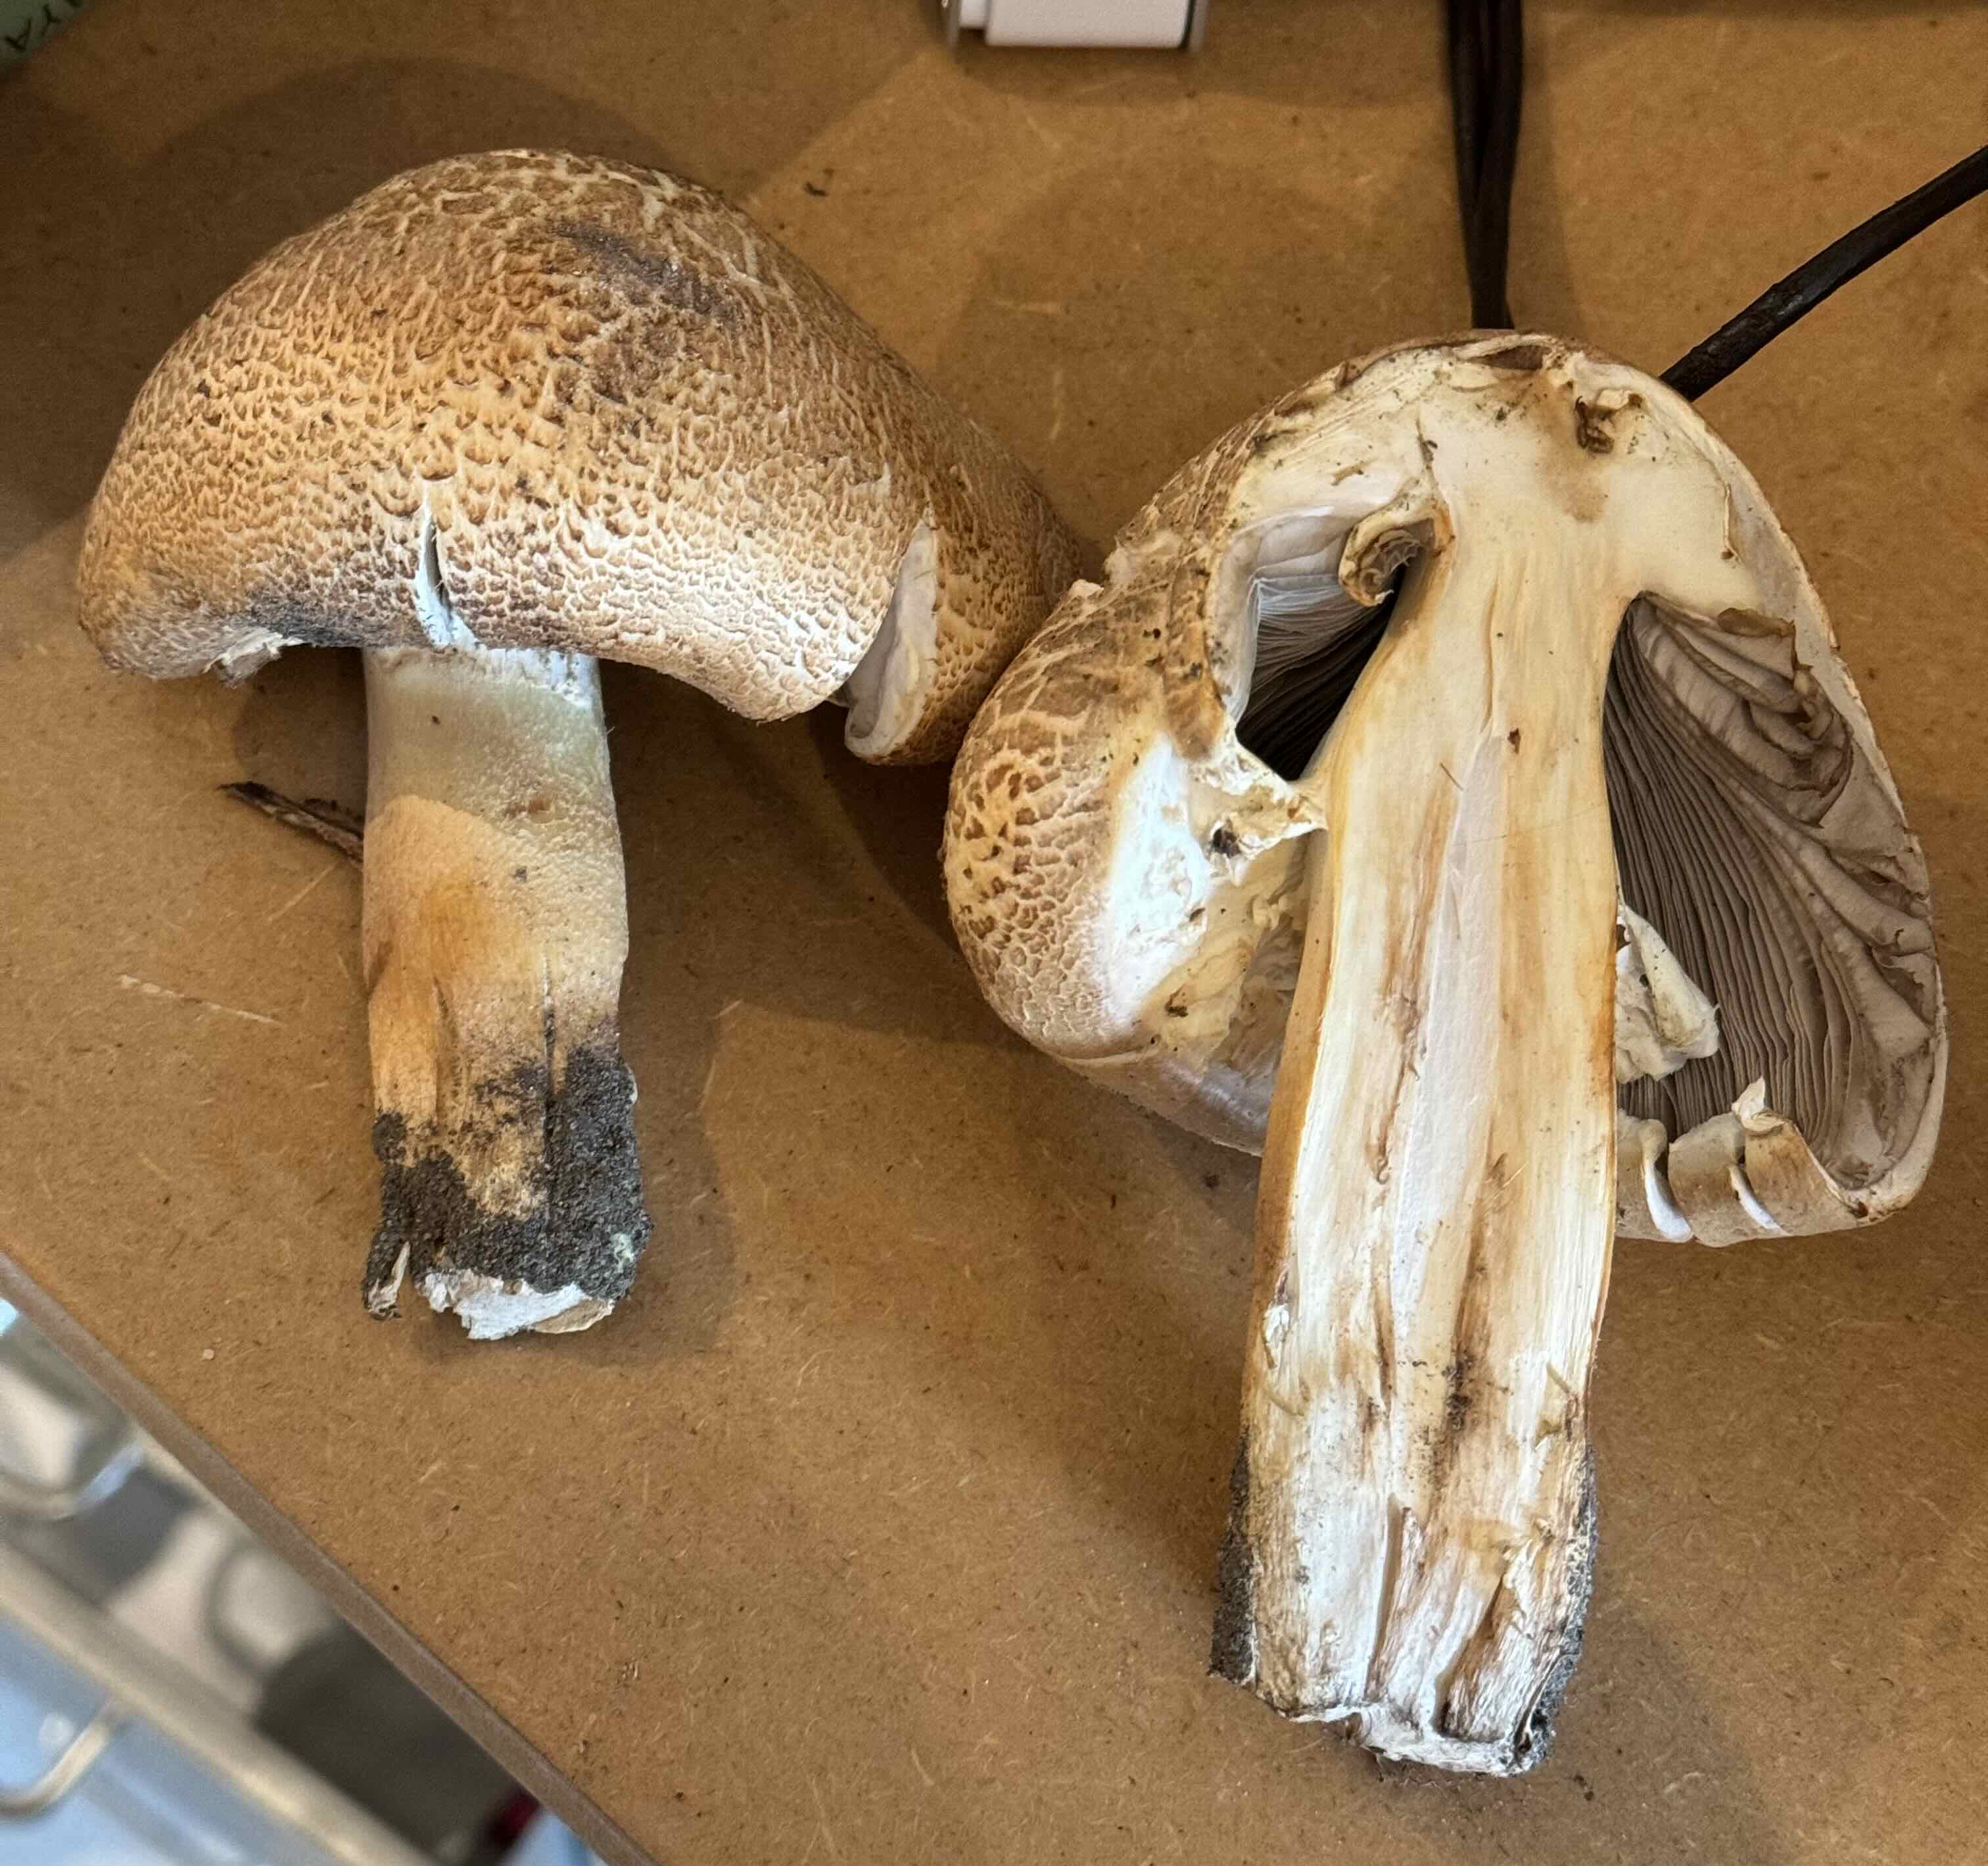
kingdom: Fungi
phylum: Basidiomycota
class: Agaricomycetes
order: Agaricales
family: Agaricaceae
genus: Agaricus
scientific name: Agaricus augustus
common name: prægtig champignon
